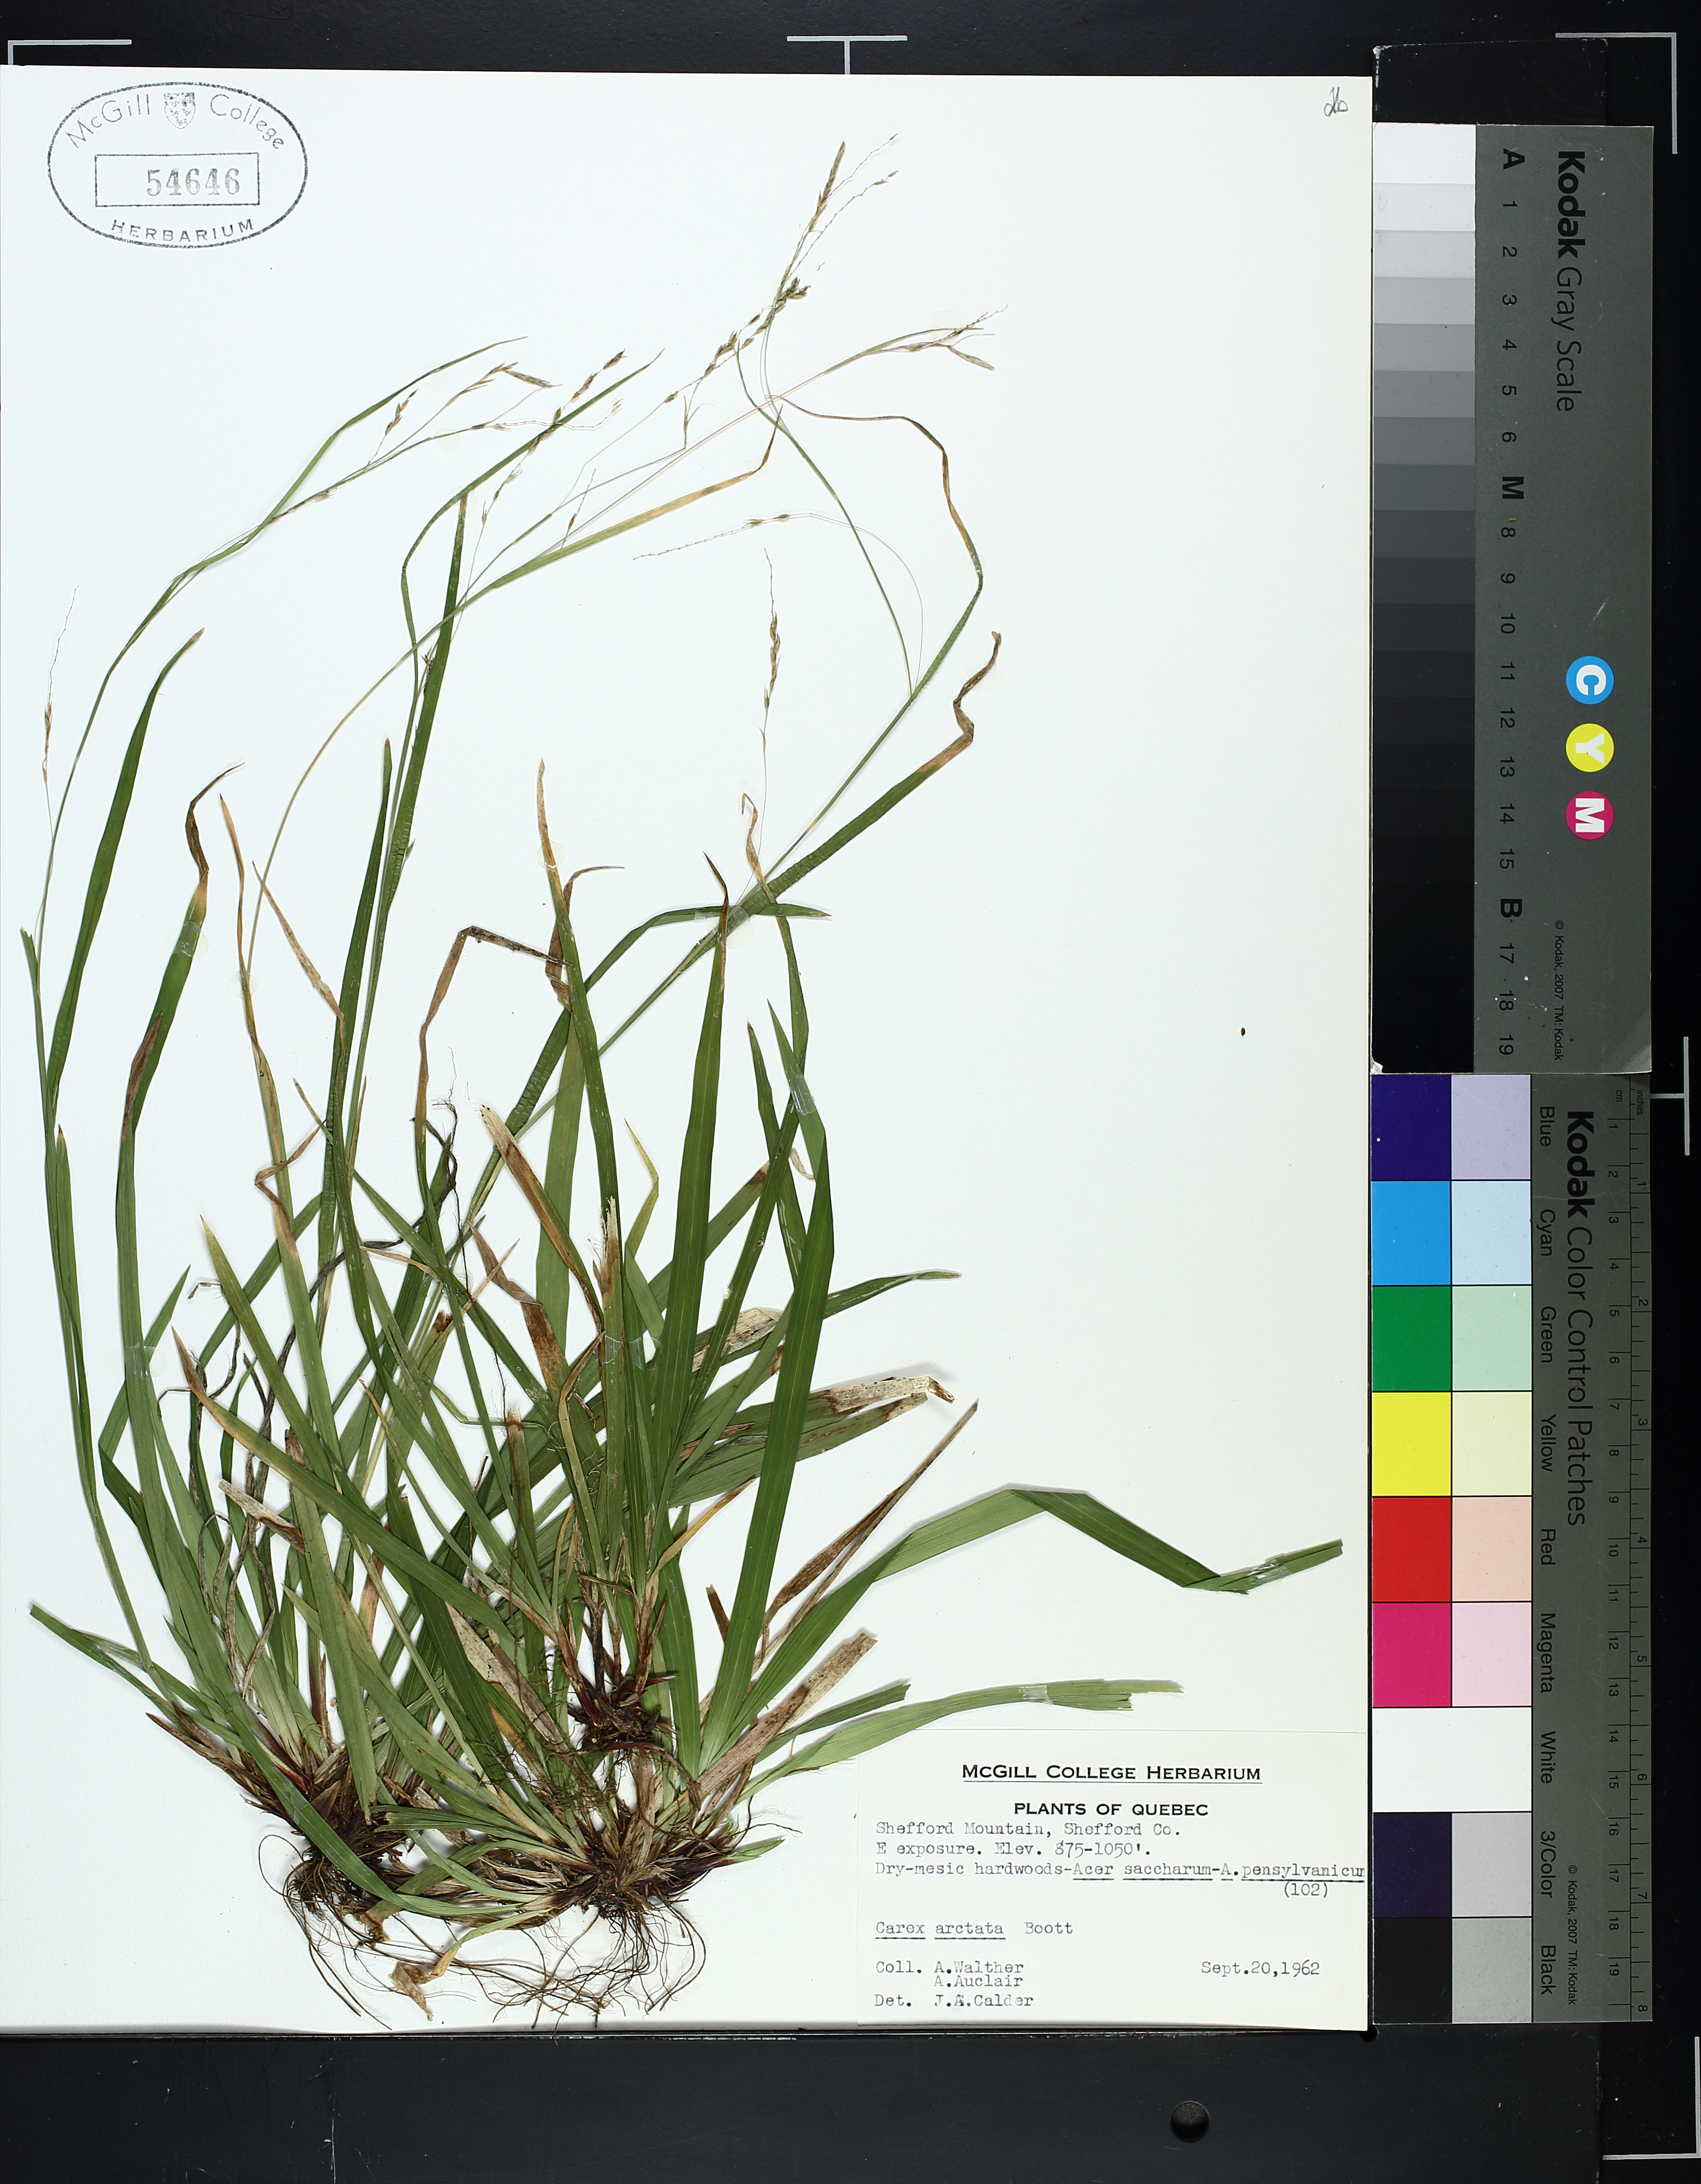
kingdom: Plantae
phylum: Tracheophyta
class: Liliopsida
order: Poales
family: Cyperaceae
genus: Carex
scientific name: Carex arctata
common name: Black sedge
